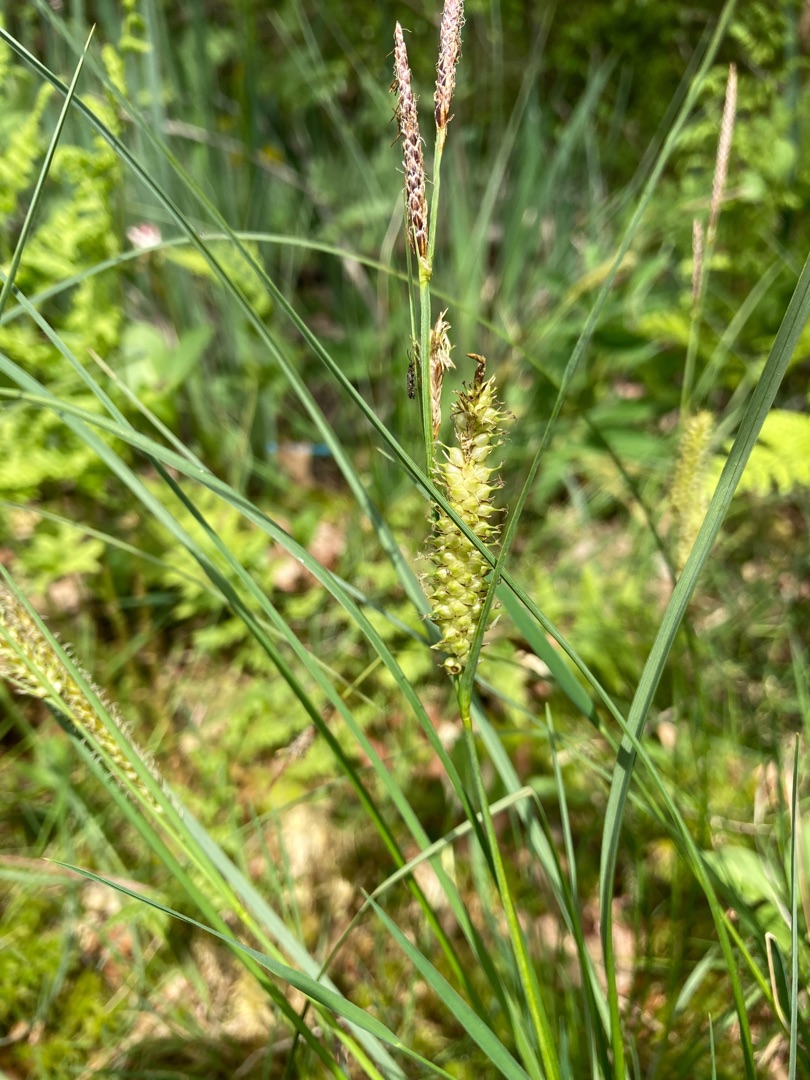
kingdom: Plantae
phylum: Tracheophyta
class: Liliopsida
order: Poales
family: Cyperaceae
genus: Carex
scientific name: Carex rostrata
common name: Næb-star
